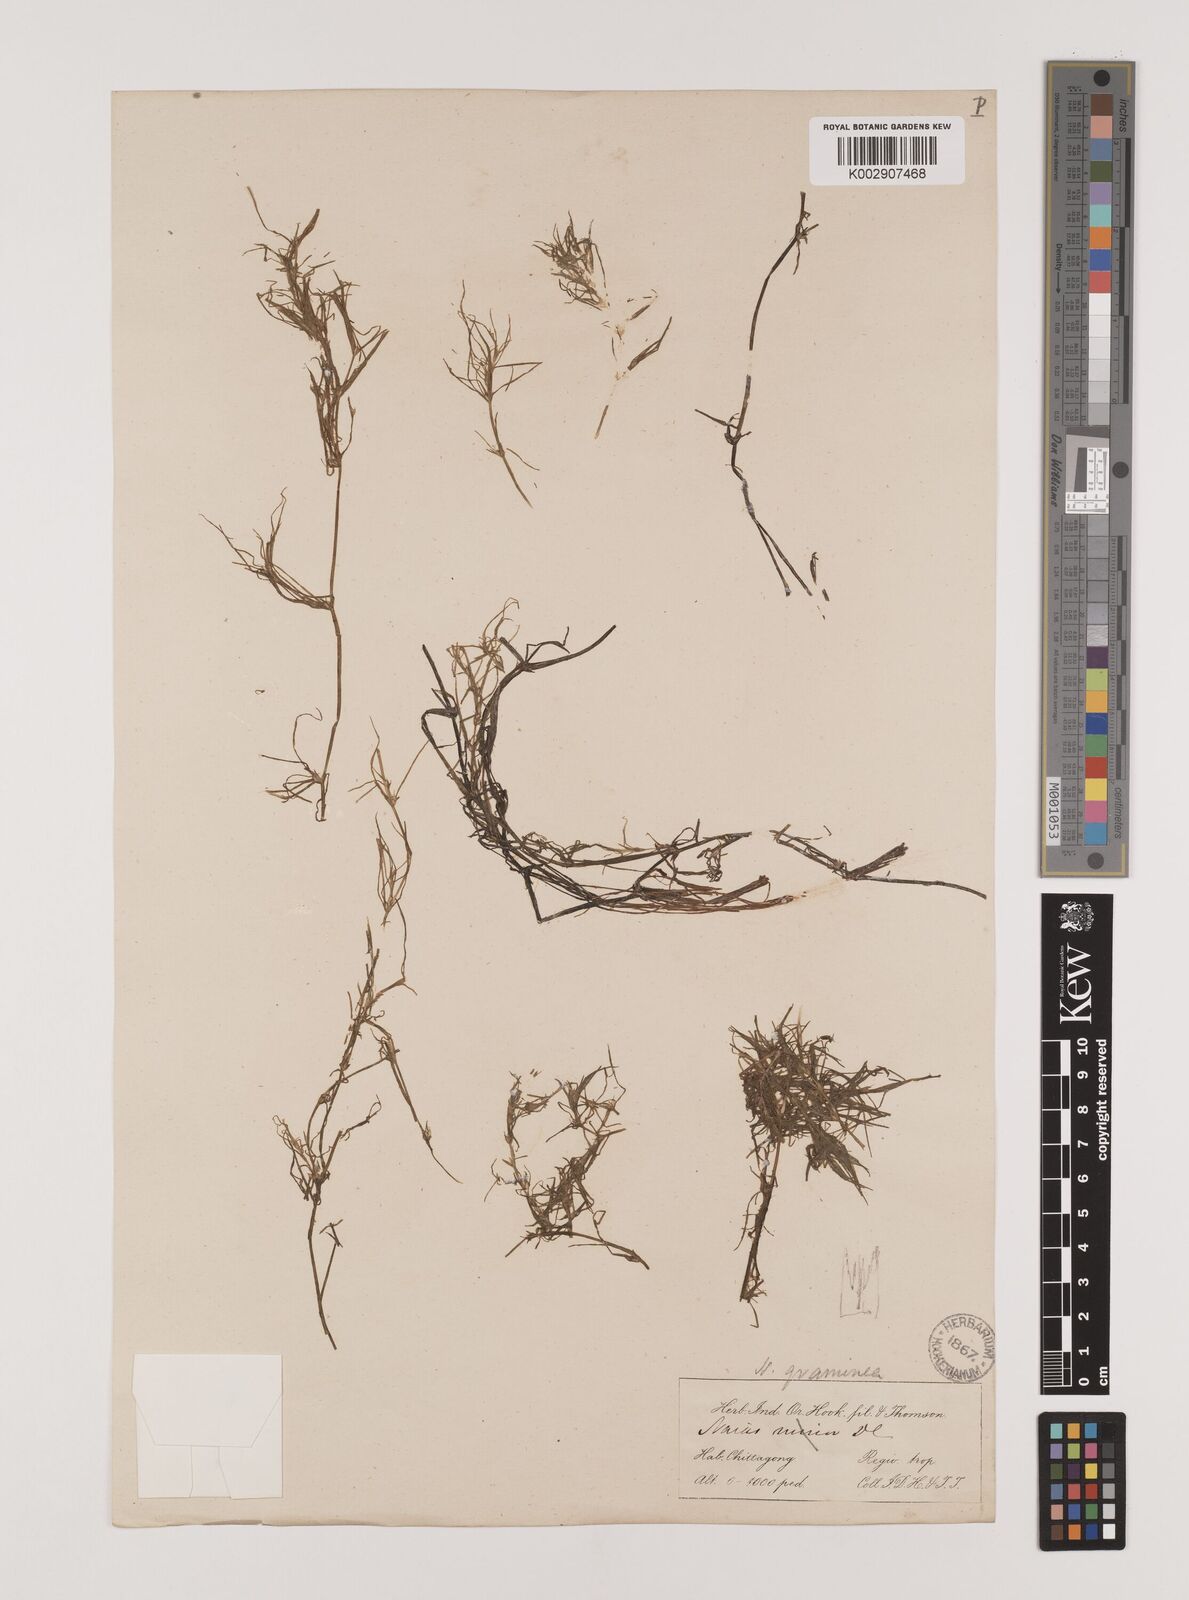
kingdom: Plantae
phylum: Tracheophyta
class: Liliopsida
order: Alismatales
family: Hydrocharitaceae
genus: Najas
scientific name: Najas graminea
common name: Ricefield waternymph
